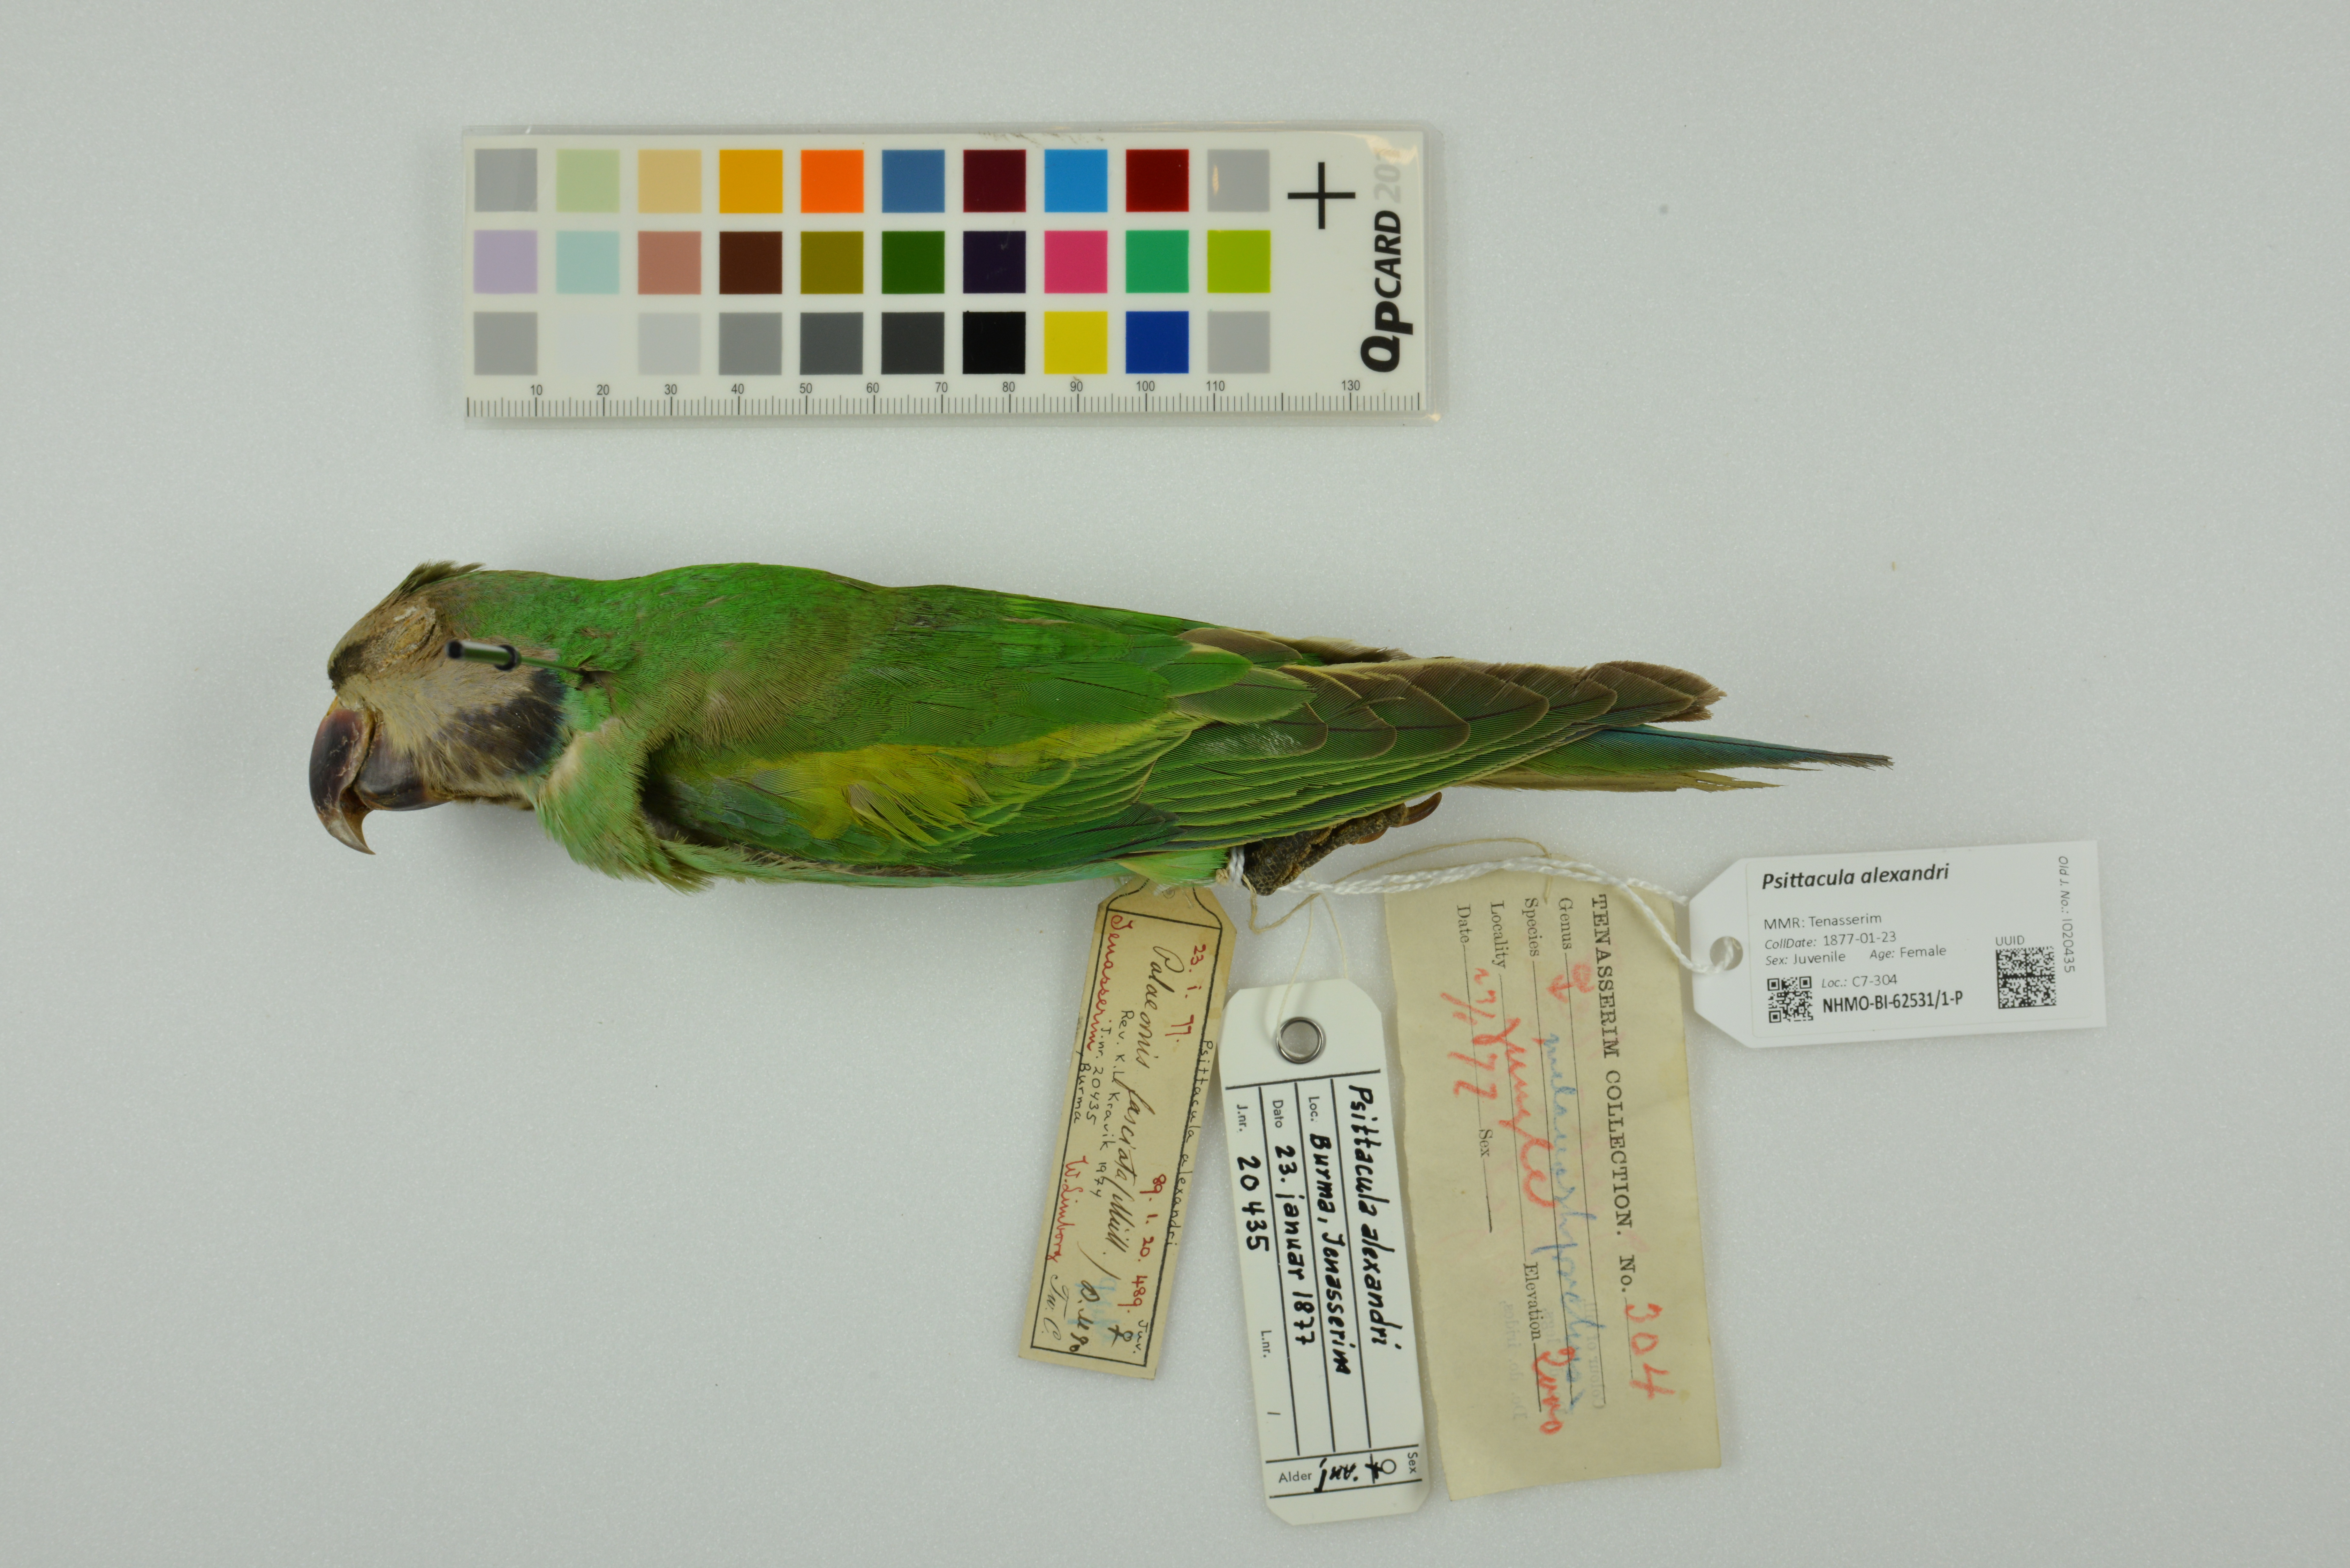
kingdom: Animalia
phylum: Chordata
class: Aves
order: Psittaciformes
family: Psittacidae
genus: Psittacula
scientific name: Psittacula alexandri
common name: Red-breasted parakeet
